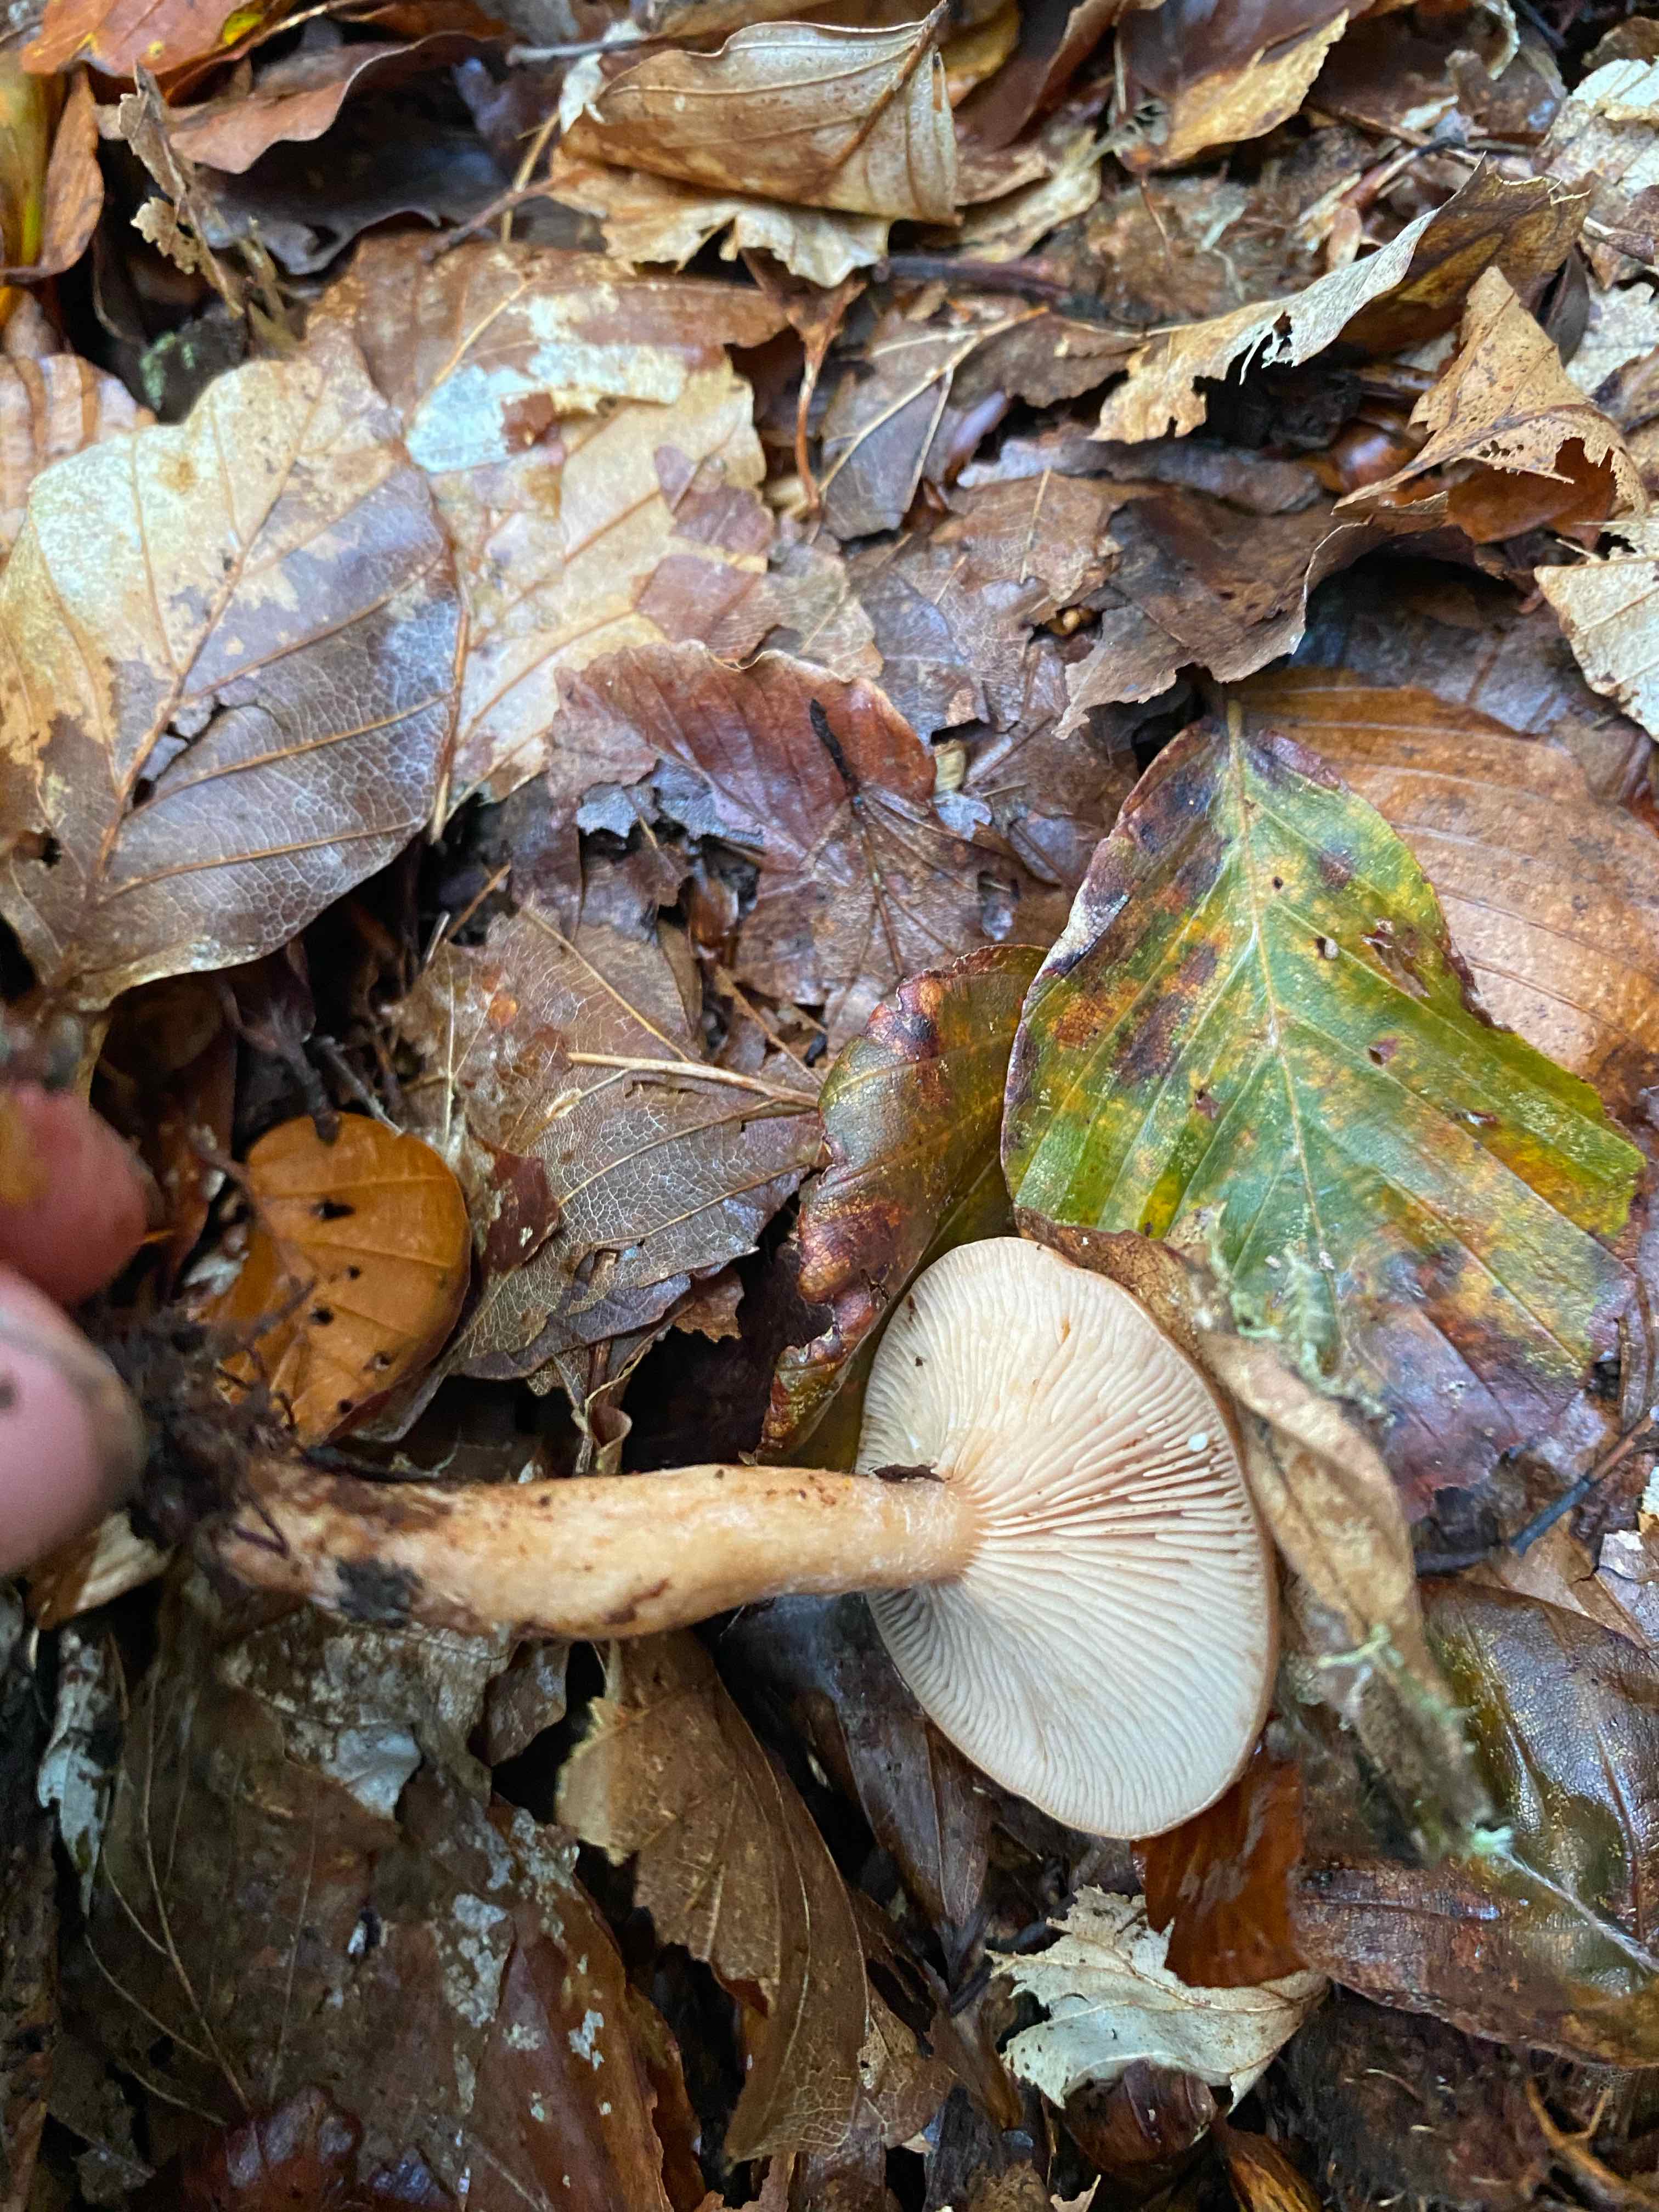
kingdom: Fungi
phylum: Basidiomycota
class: Agaricomycetes
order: Russulales
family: Russulaceae
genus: Lactarius
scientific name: Lactarius subdulcis
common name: sødlig mælkehat
